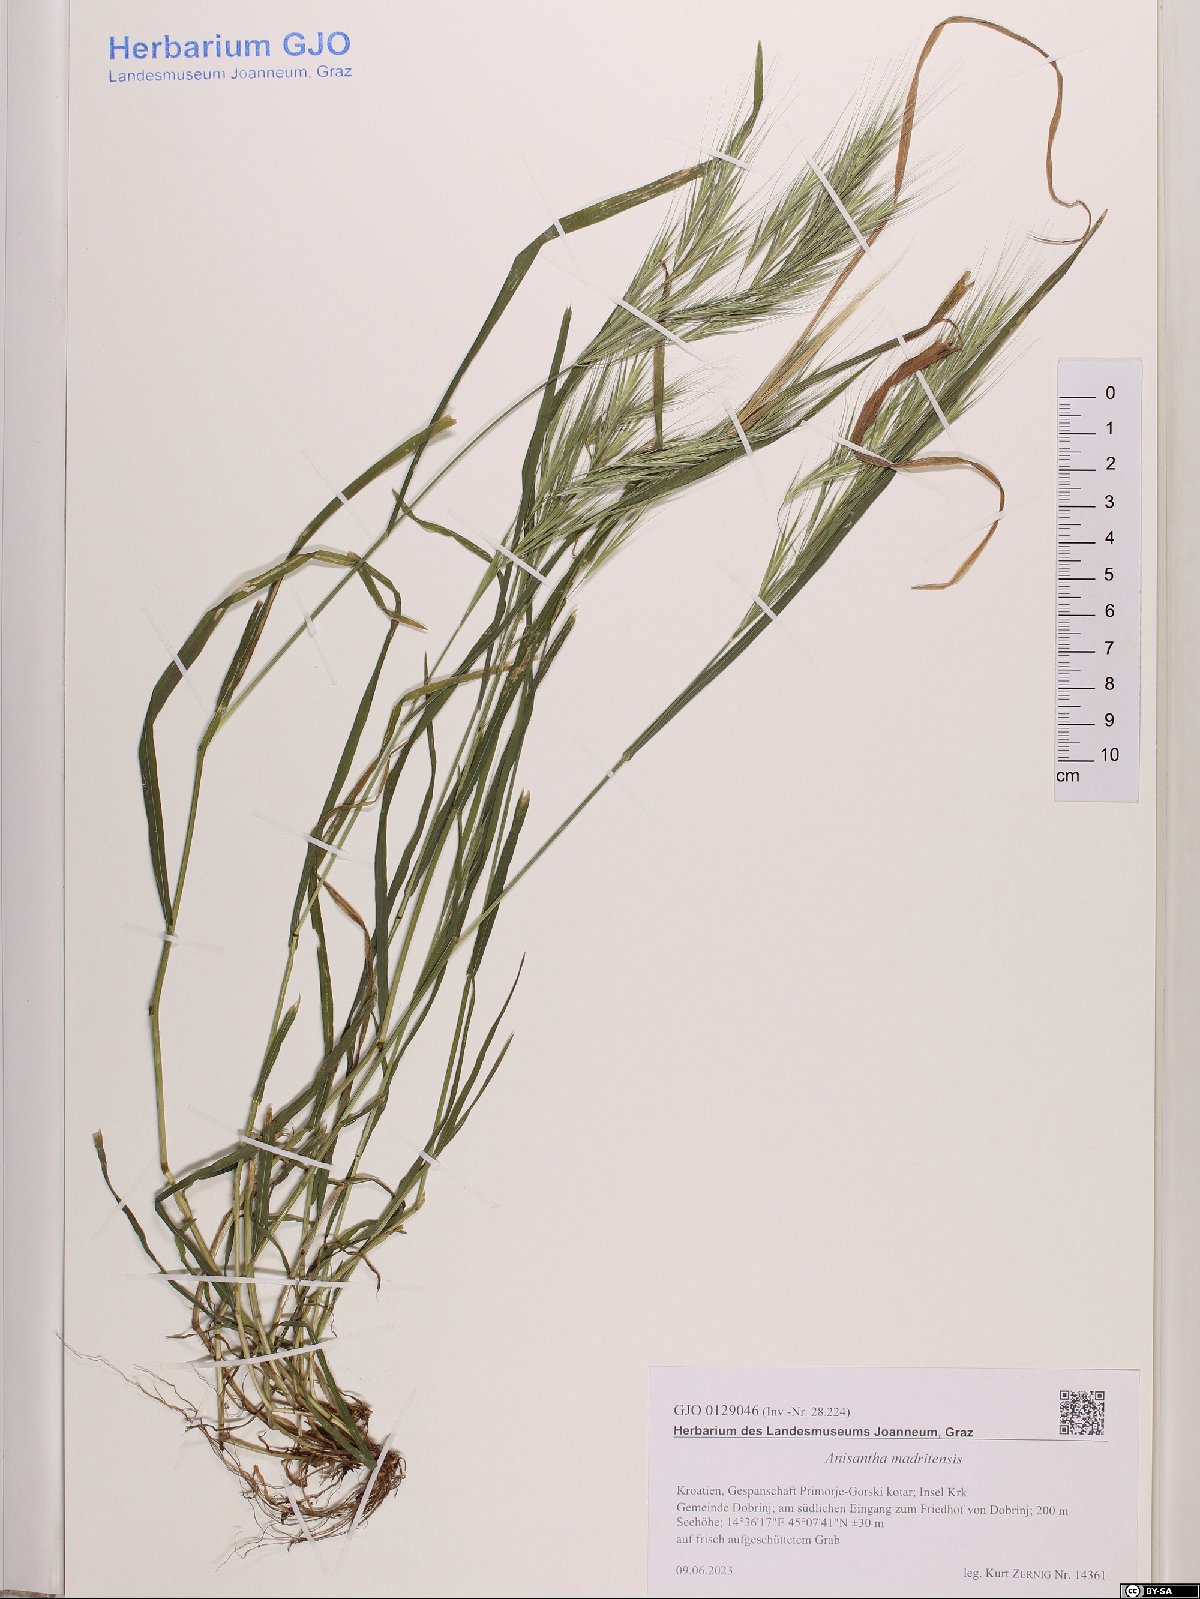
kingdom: Plantae
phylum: Tracheophyta
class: Liliopsida
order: Poales
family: Poaceae
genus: Bromus
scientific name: Bromus madritensis
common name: Compact brome
